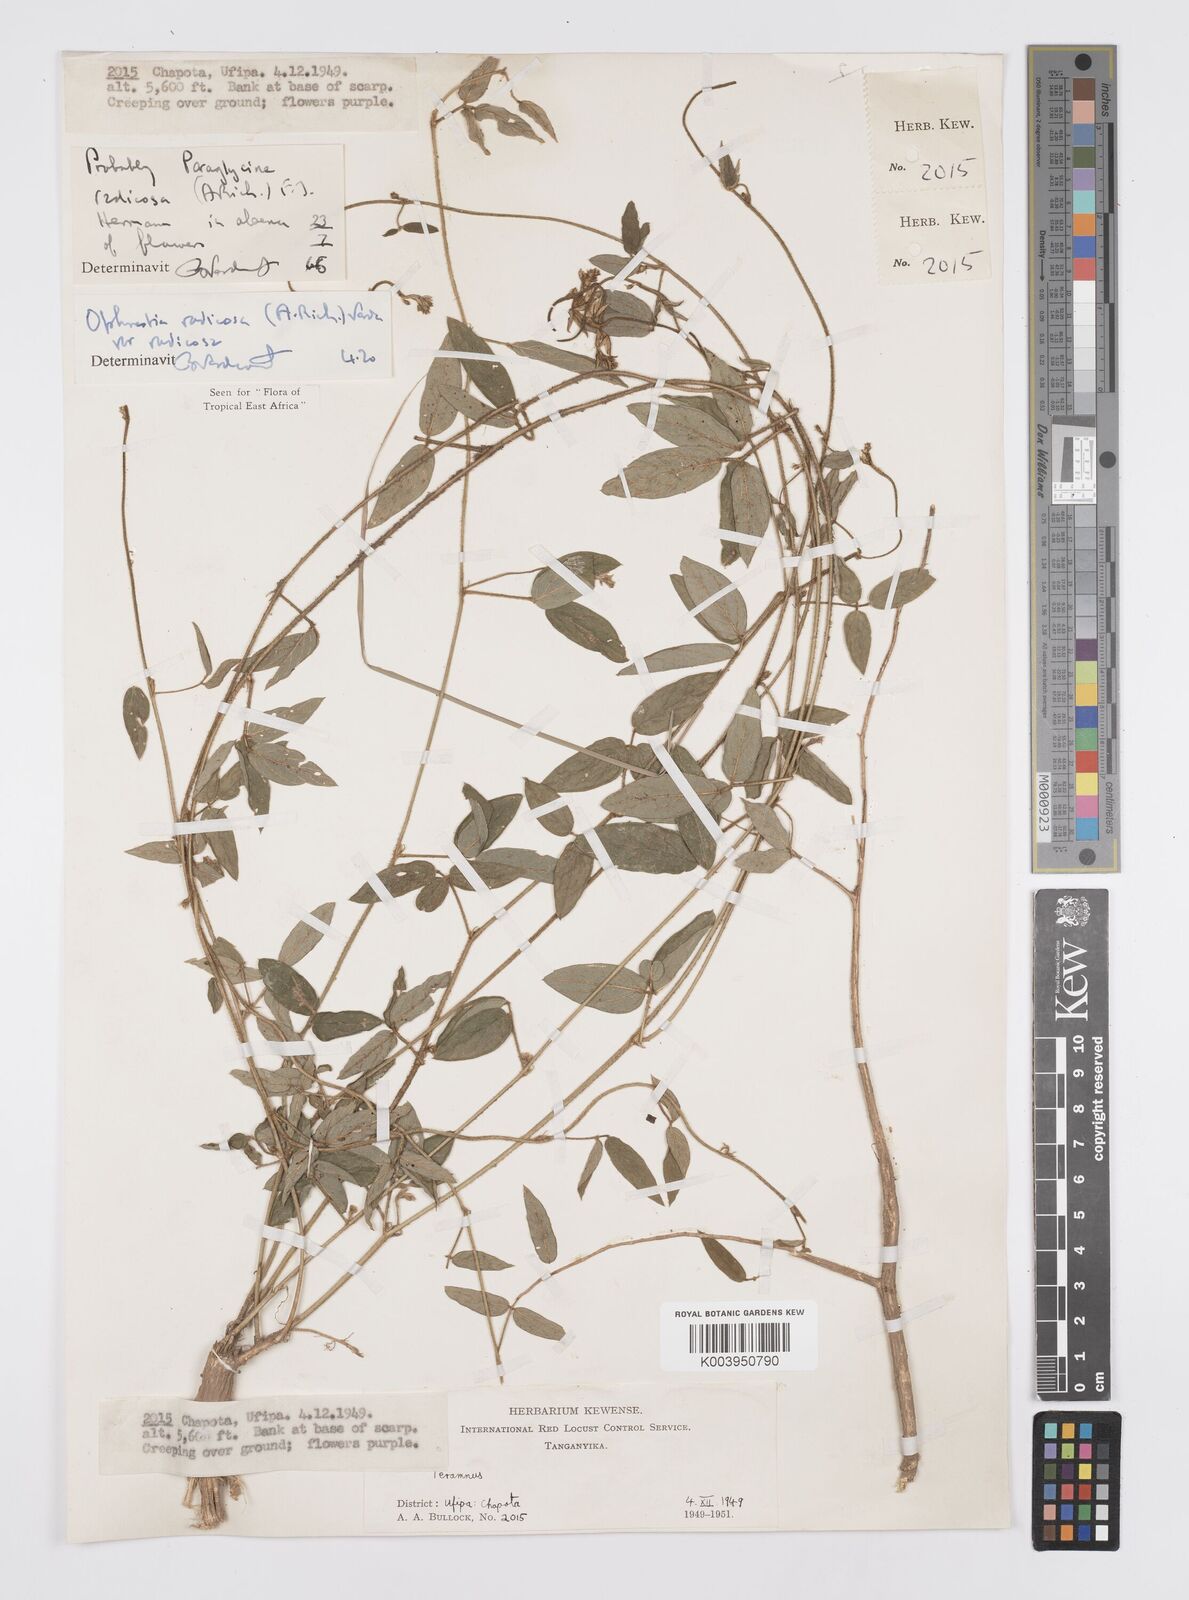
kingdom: Plantae
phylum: Tracheophyta
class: Magnoliopsida
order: Fabales
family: Fabaceae
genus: Ophrestia
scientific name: Ophrestia radicosa
